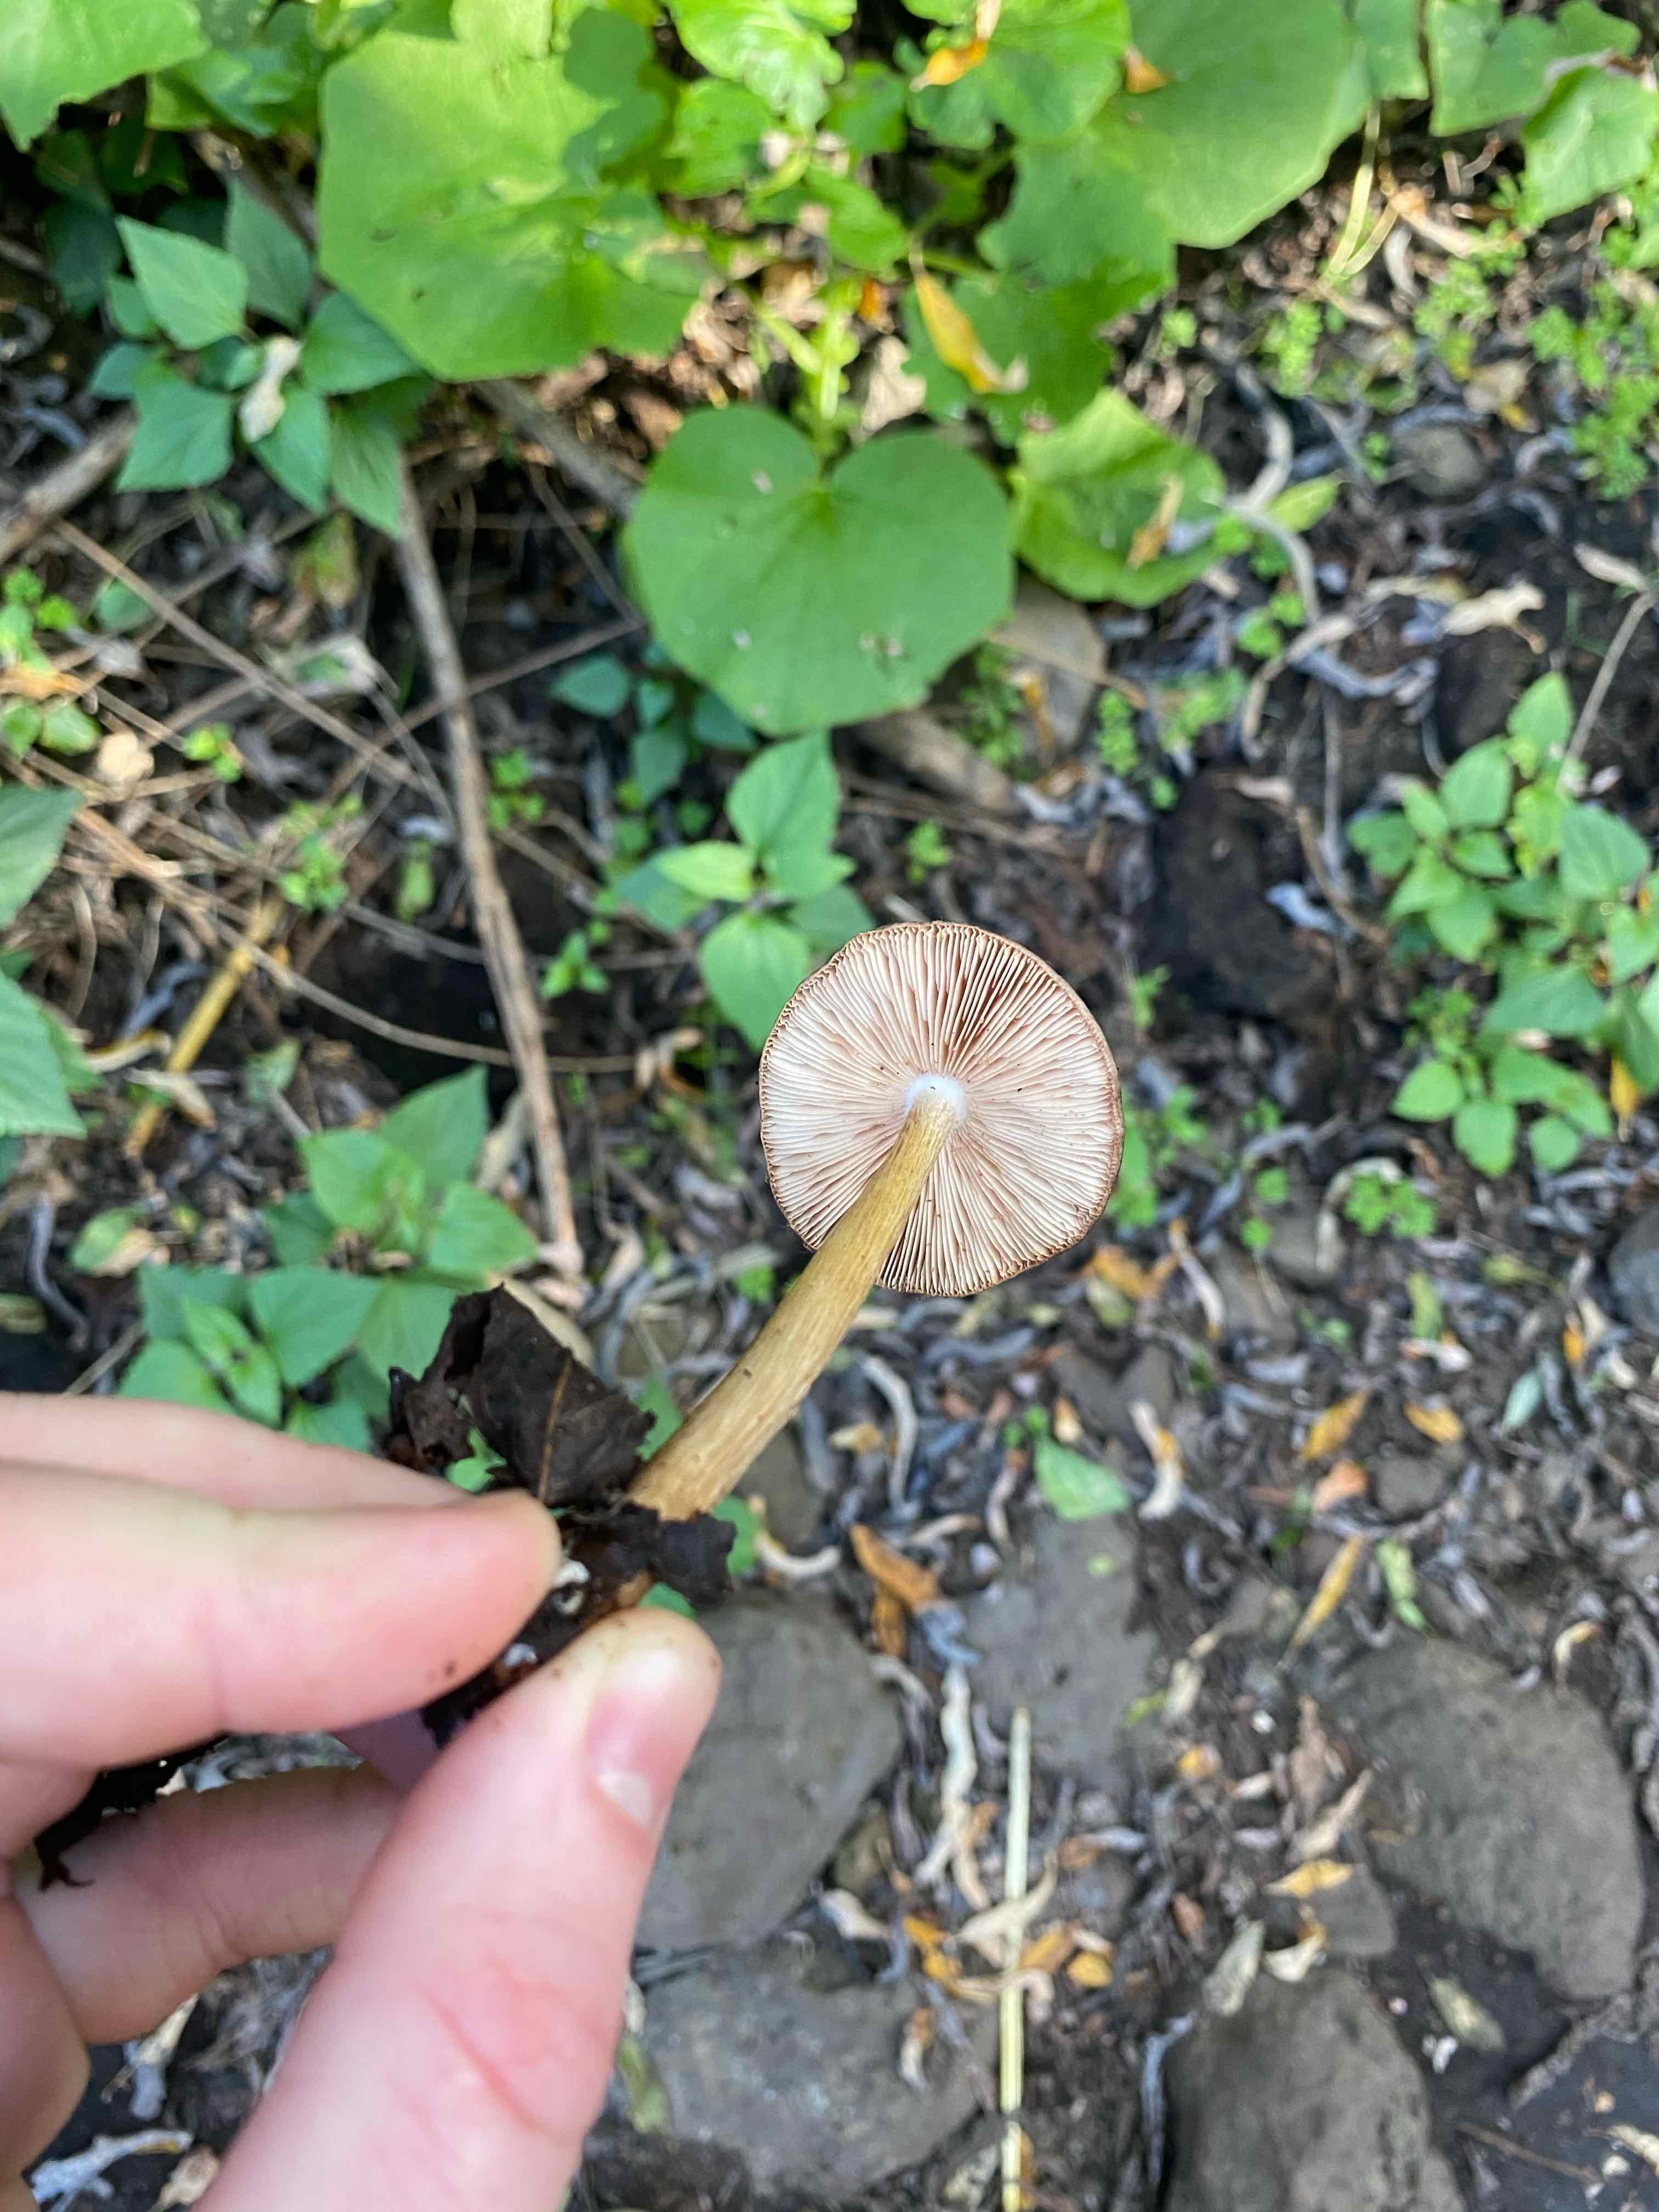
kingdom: Fungi
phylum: Basidiomycota
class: Agaricomycetes
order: Agaricales
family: Pluteaceae
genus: Pluteus
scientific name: Pluteus
